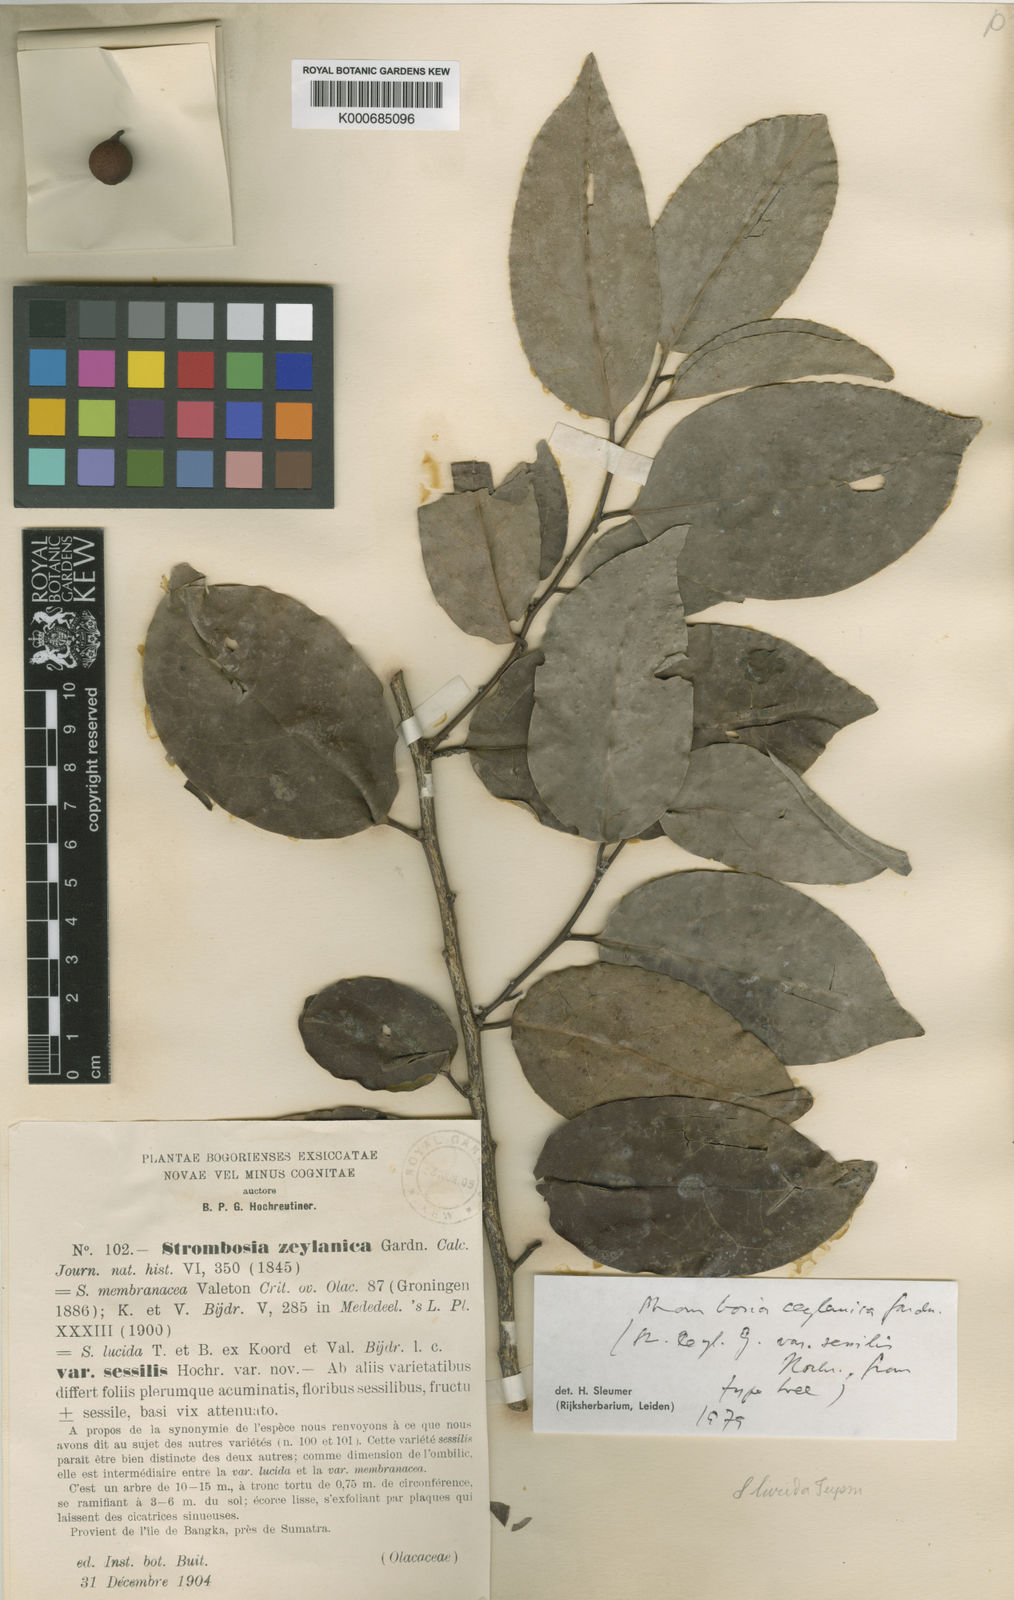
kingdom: Plantae
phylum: Tracheophyta
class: Magnoliopsida
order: Santalales
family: Strombosiaceae
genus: Strombosia
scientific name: Strombosia ceylanica
